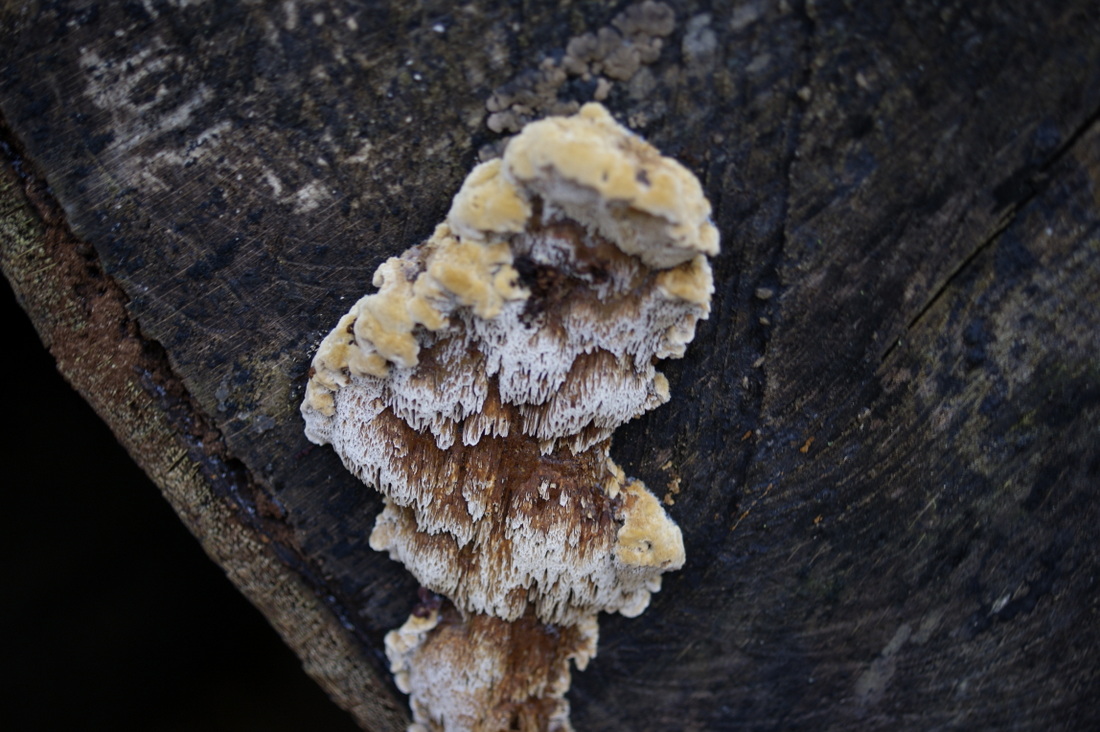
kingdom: Fungi
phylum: Basidiomycota
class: Agaricomycetes
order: Hymenochaetales
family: Hymenochaetaceae
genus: Mensularia
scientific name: Mensularia nodulosa
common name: bøge-spejlporesvamp
